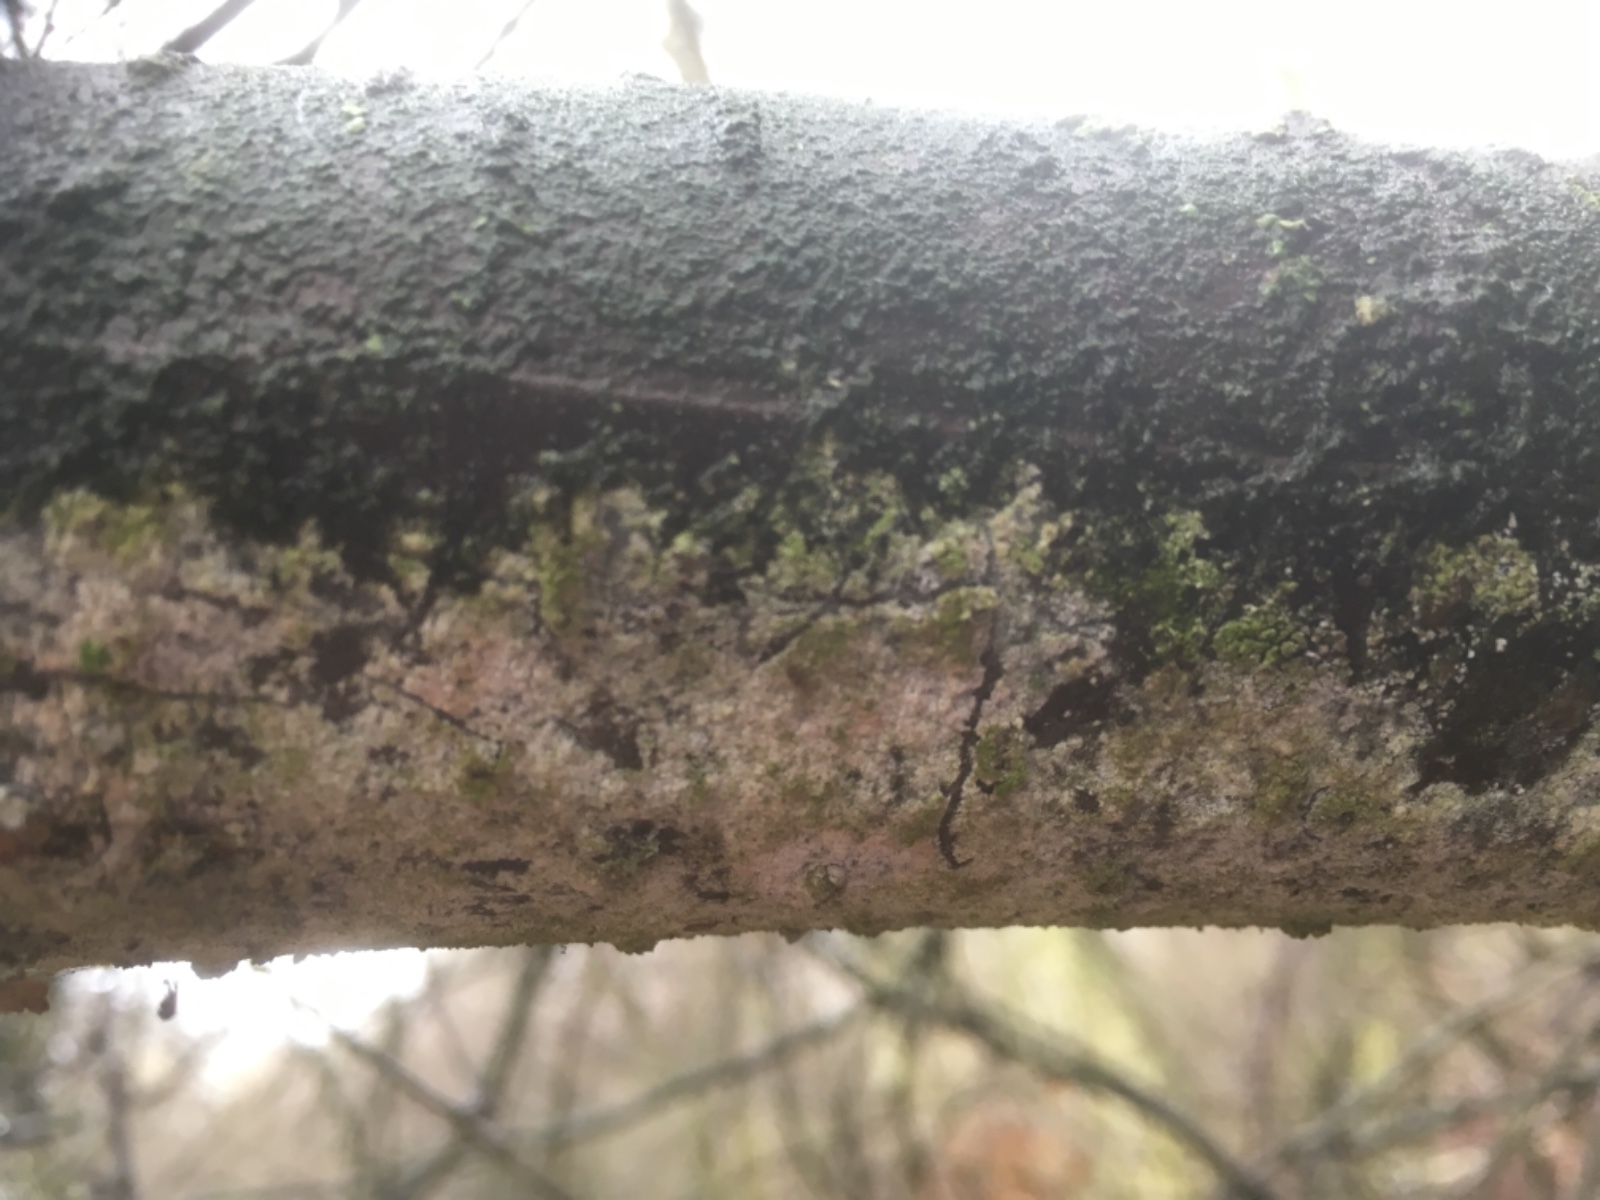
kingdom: Fungi
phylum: Basidiomycota
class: Agaricomycetes
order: Corticiales
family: Corticiaceae
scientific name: Corticiaceae
